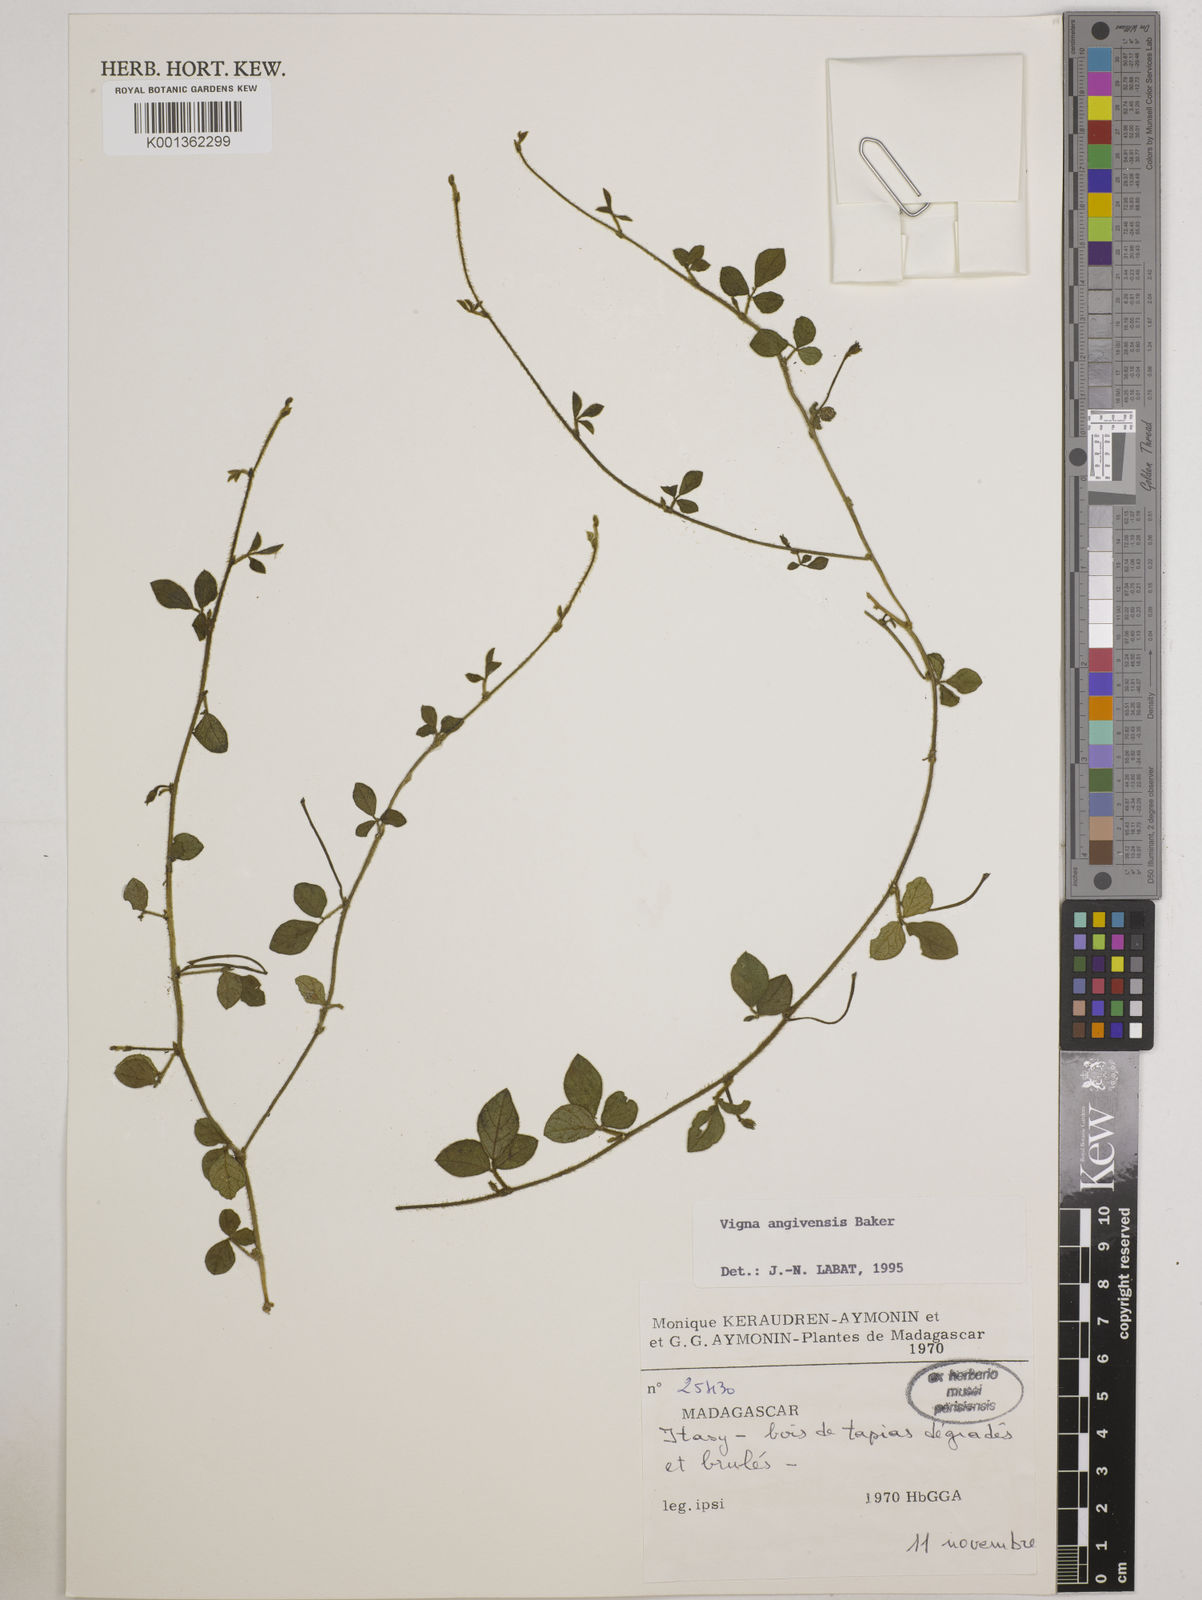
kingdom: Plantae
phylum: Tracheophyta
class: Magnoliopsida
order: Fabales
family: Fabaceae
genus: Vigna
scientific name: Vigna angivensis
